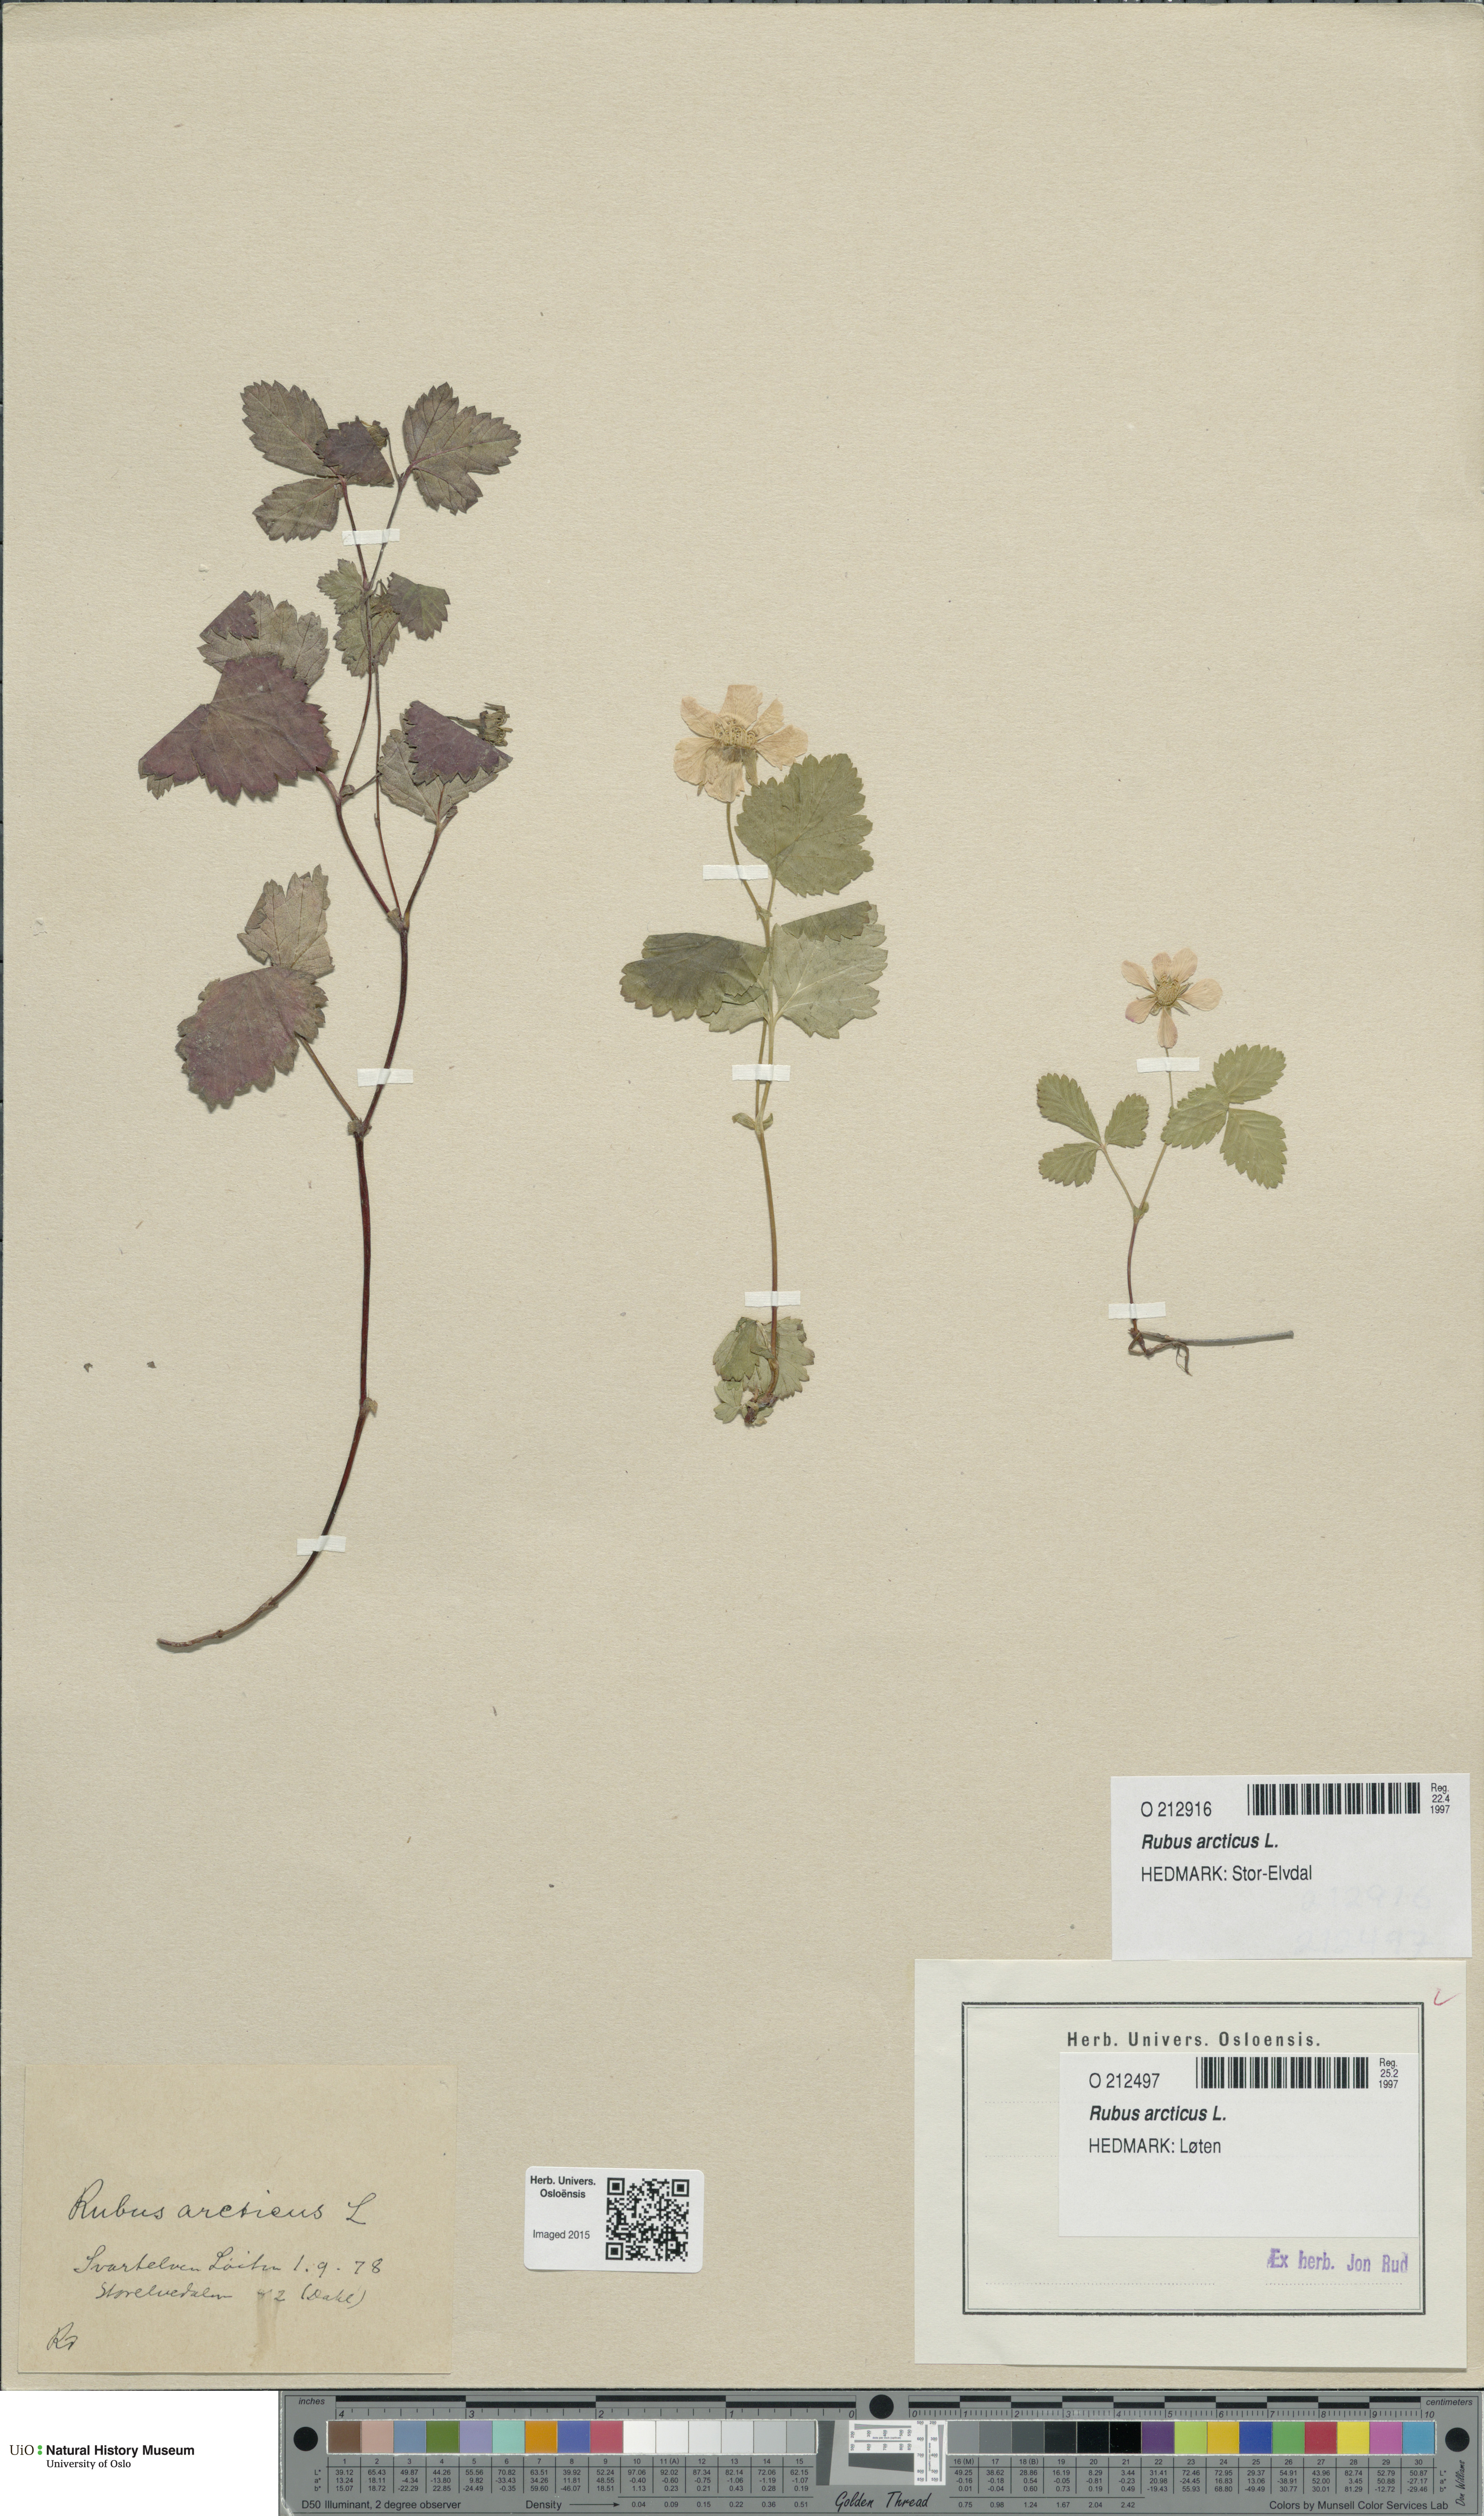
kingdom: Plantae
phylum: Tracheophyta
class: Magnoliopsida
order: Rosales
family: Rosaceae
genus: Rubus
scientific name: Rubus arcticus
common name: Arctic bramble
